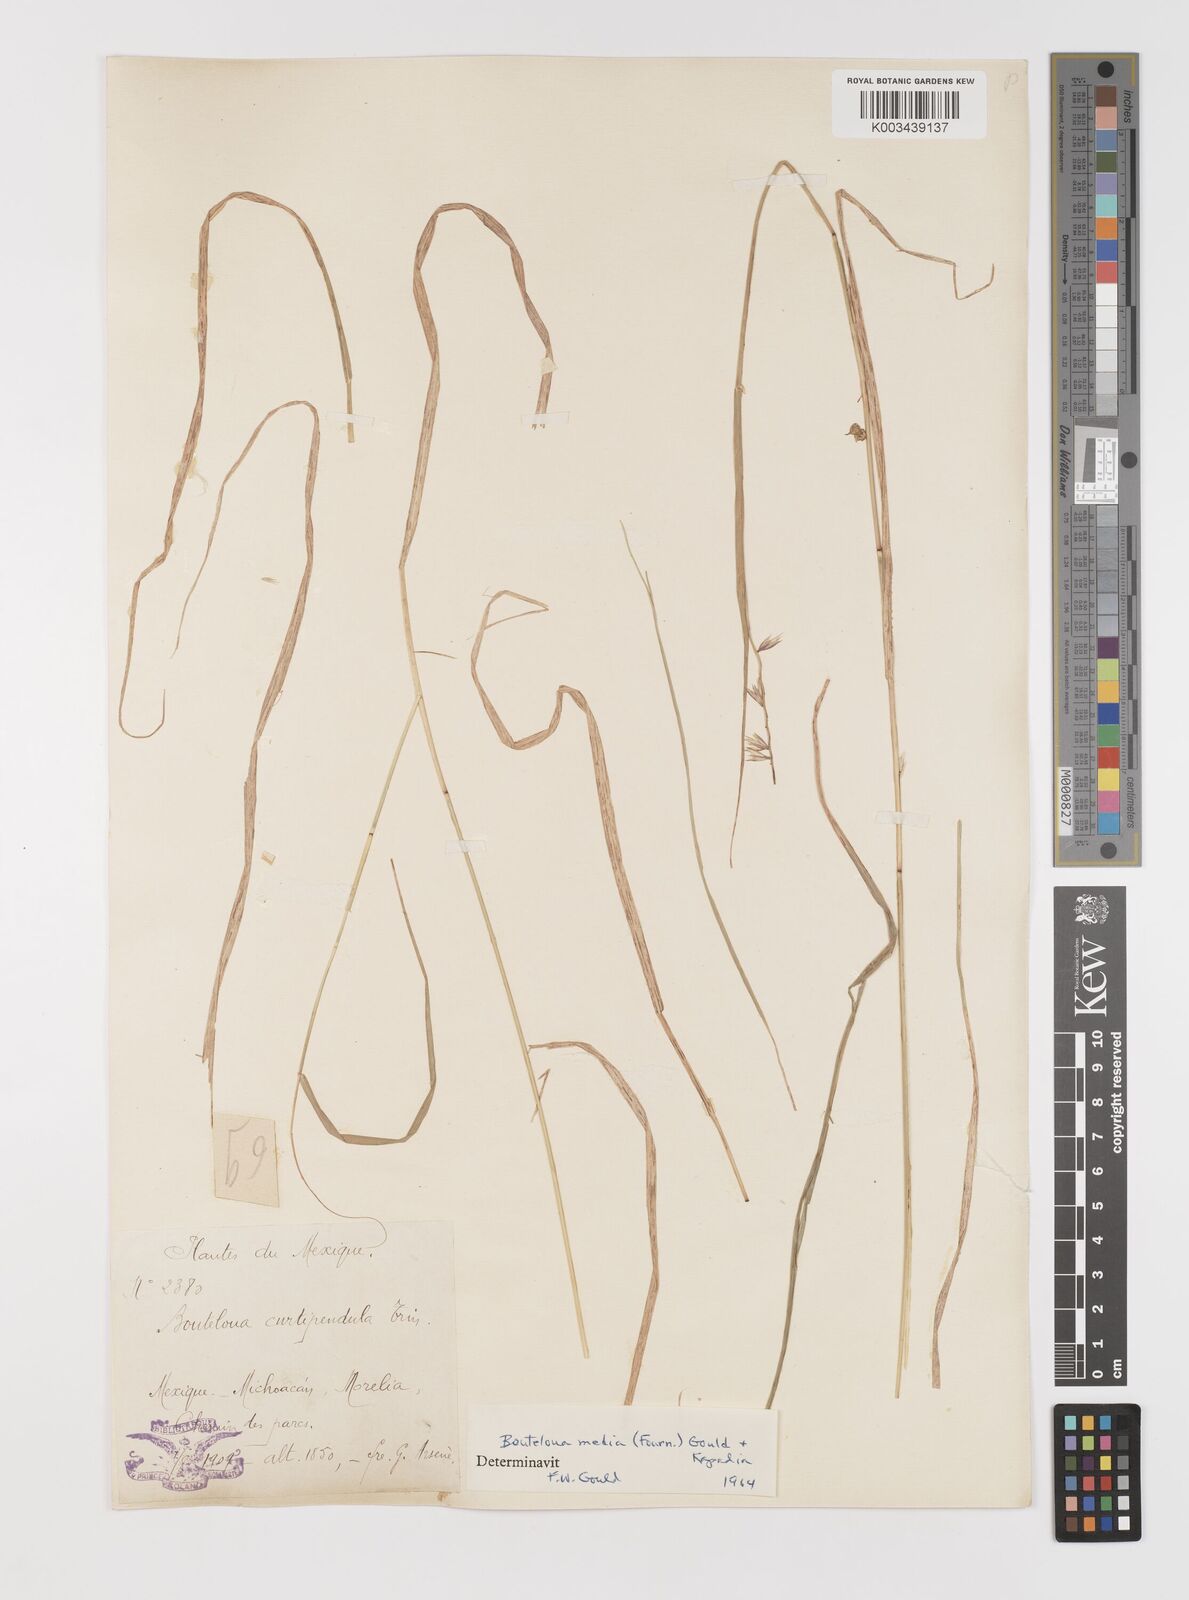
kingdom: Plantae
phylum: Tracheophyta
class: Liliopsida
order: Poales
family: Poaceae
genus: Bouteloua
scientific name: Bouteloua media
